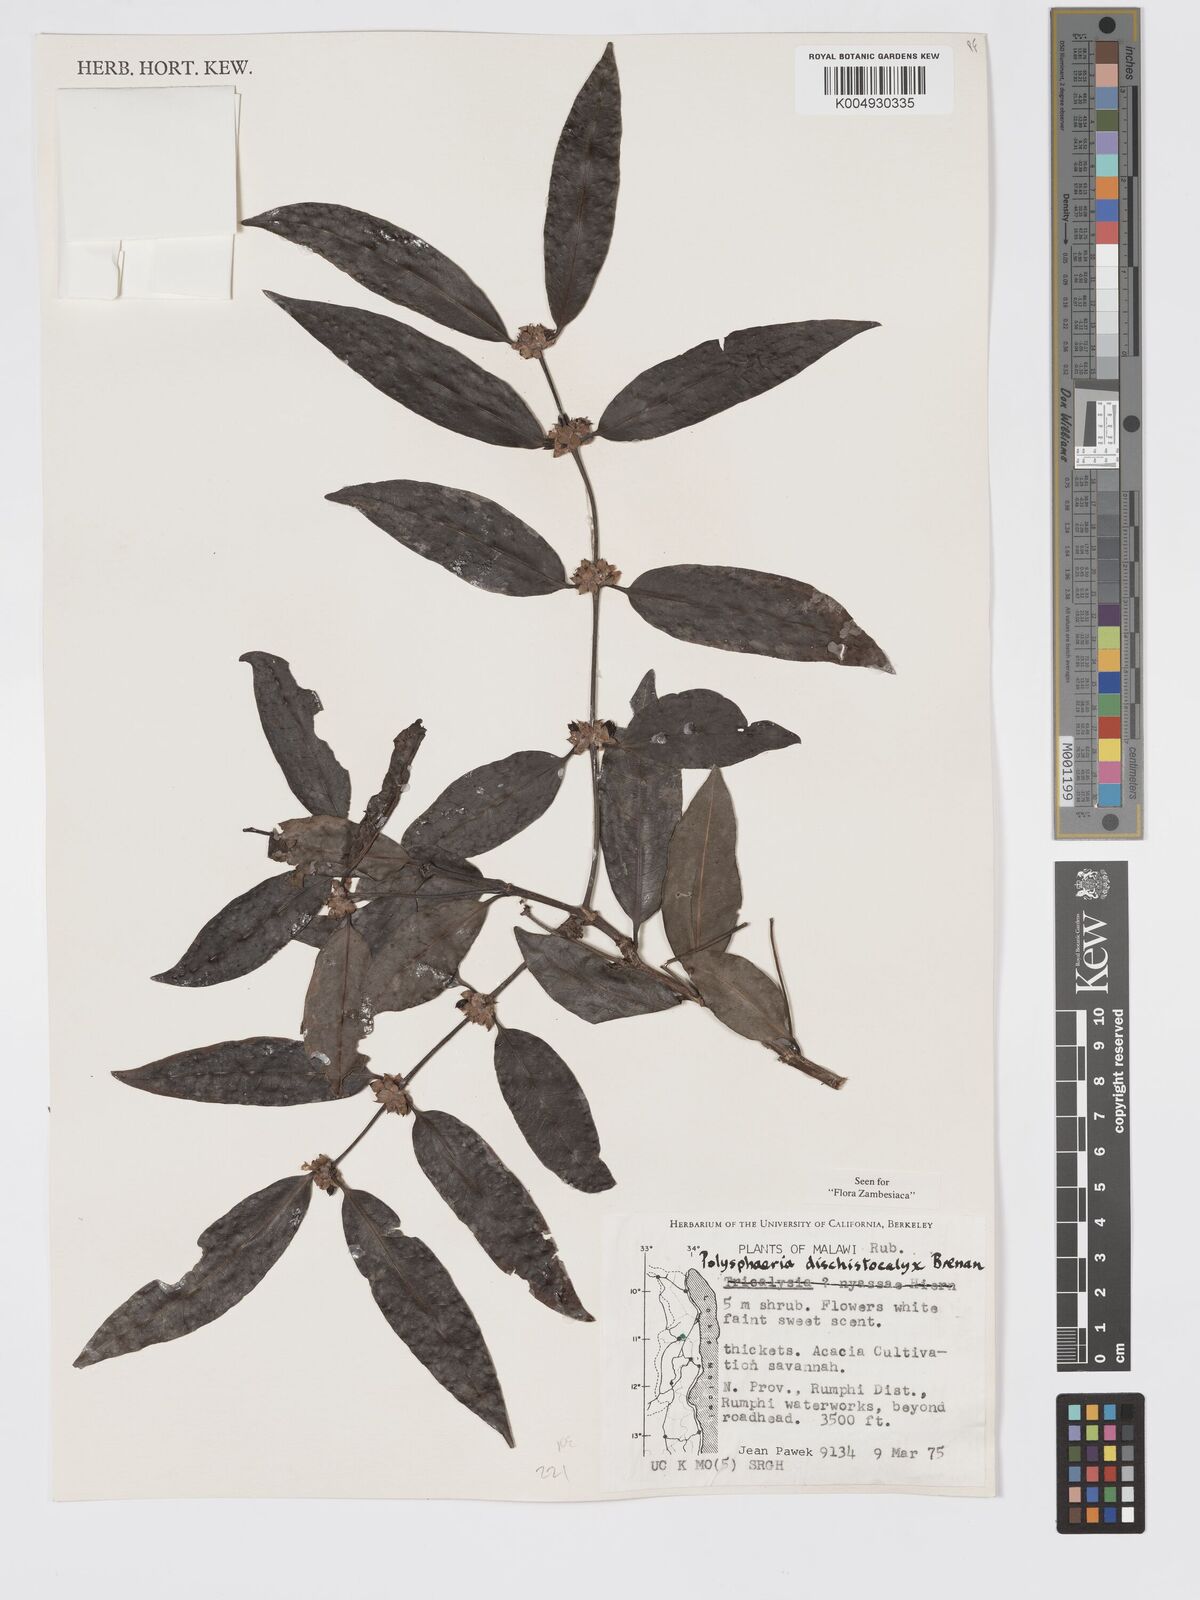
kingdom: Plantae
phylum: Tracheophyta
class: Magnoliopsida
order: Gentianales
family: Rubiaceae
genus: Polysphaeria
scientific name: Polysphaeria dischistocalyx
